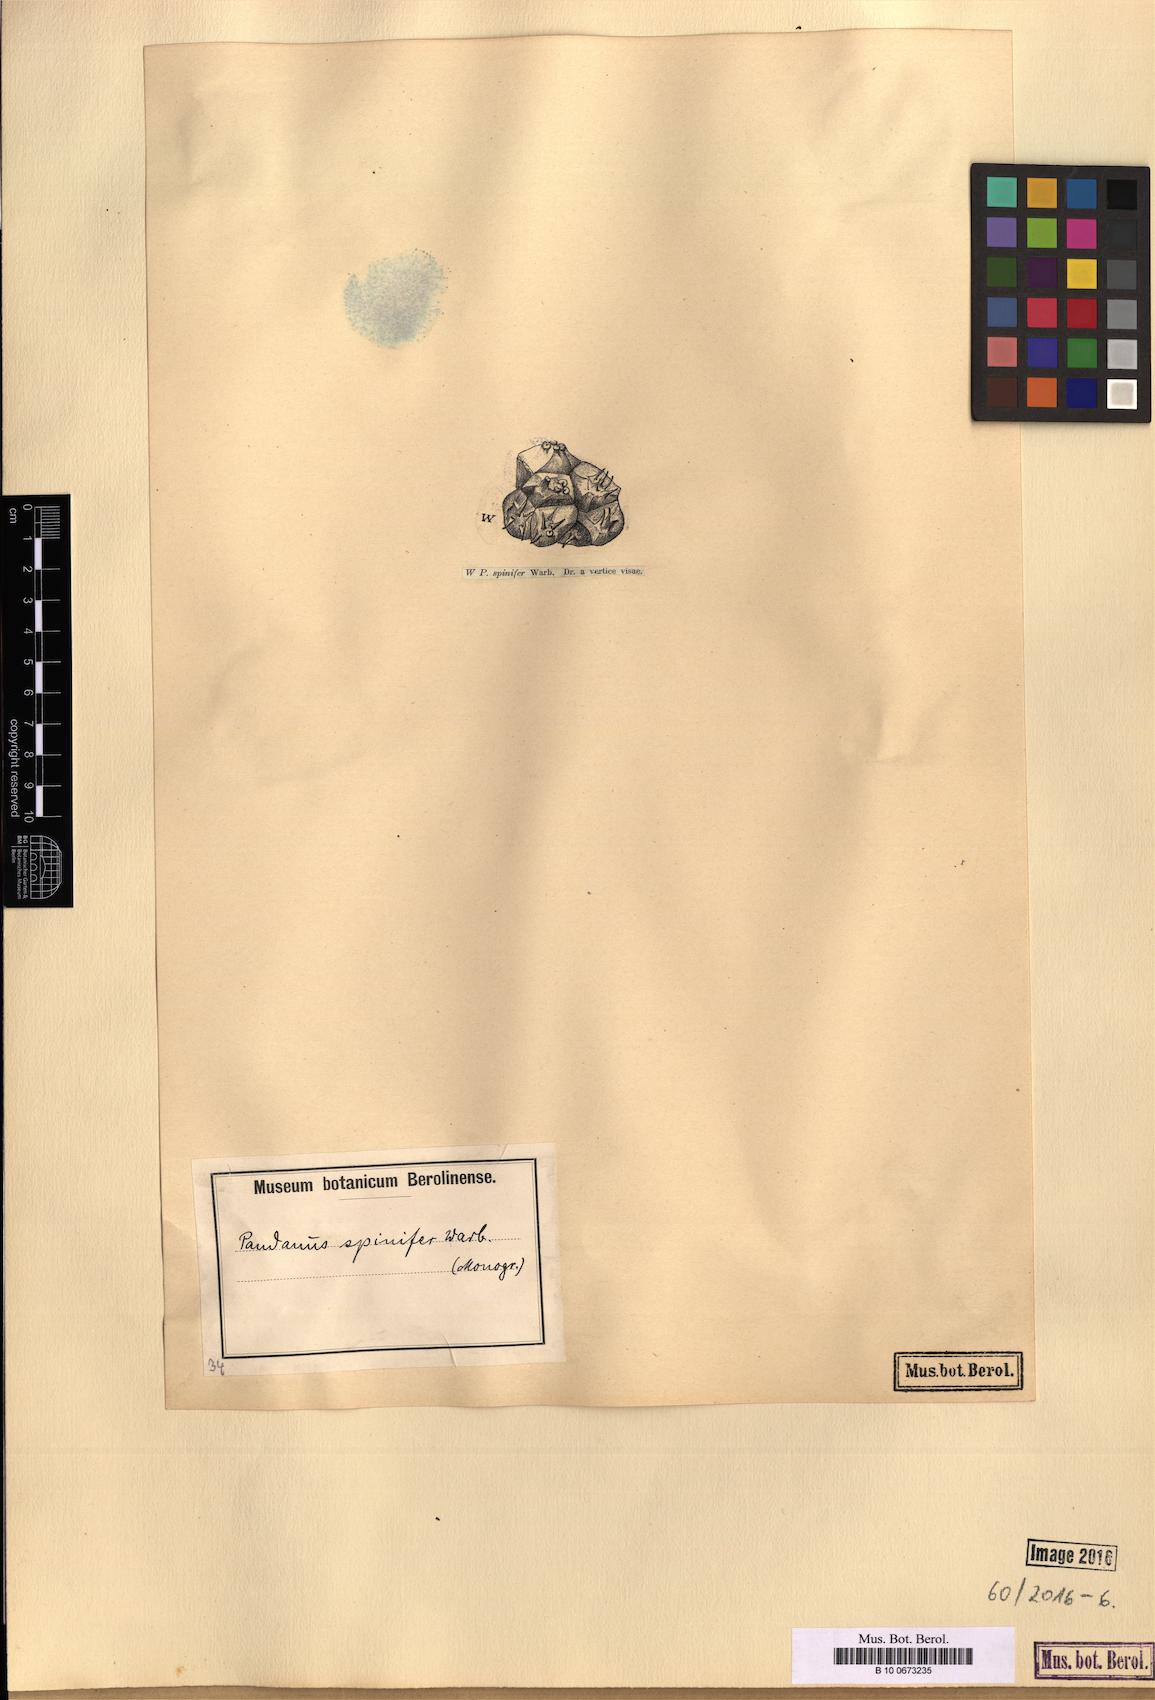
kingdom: Plantae
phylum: Tracheophyta
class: Liliopsida
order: Pandanales
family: Pandanaceae
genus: Pandanus
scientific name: Pandanus spinifer
